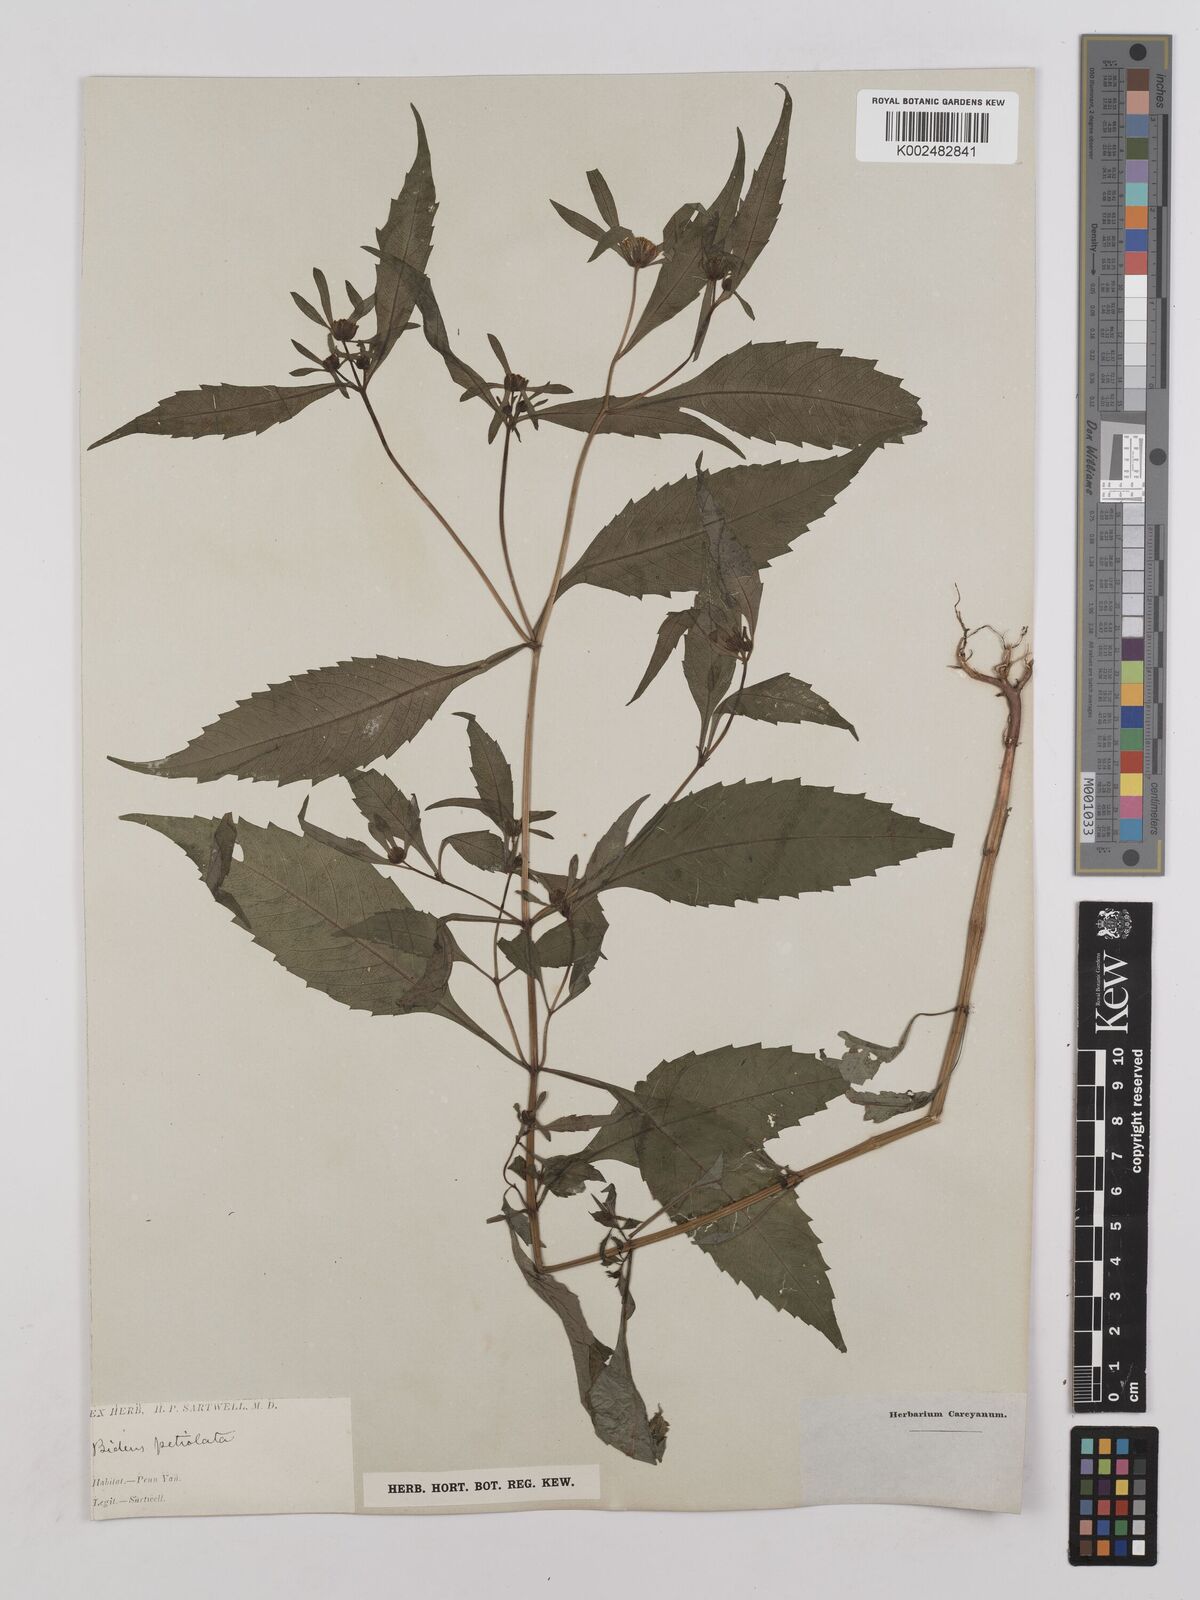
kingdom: Plantae
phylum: Tracheophyta
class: Magnoliopsida
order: Asterales
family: Asteraceae
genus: Bidens
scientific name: Bidens connata
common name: London bur-marigold
